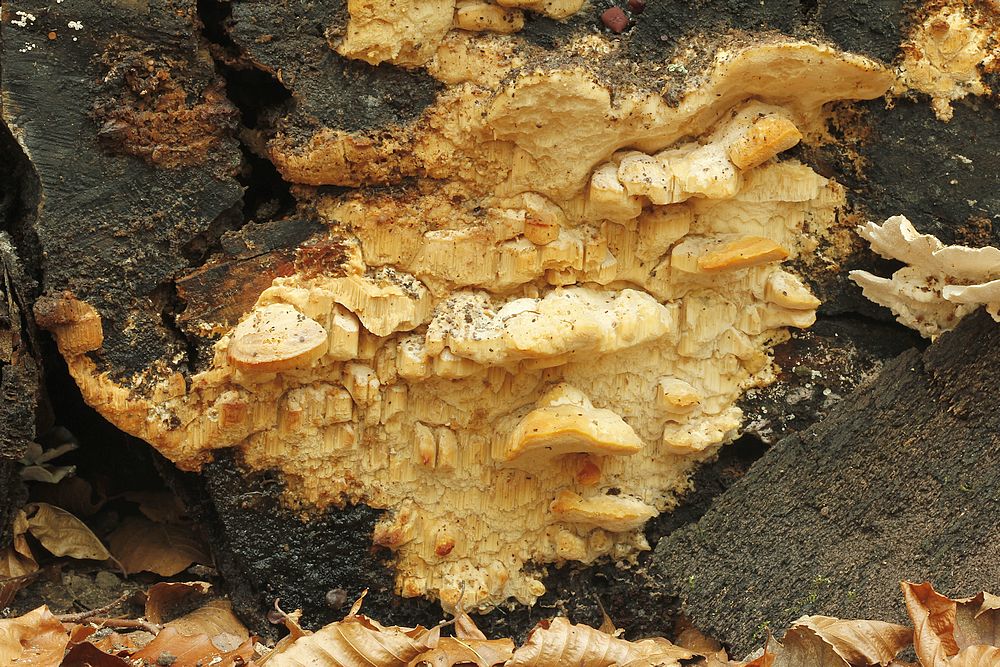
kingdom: Fungi
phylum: Basidiomycota
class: Agaricomycetes
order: Polyporales
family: Steccherinaceae
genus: Antrodiella
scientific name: Antrodiella mentschulensis
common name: abrikosporesvamp
